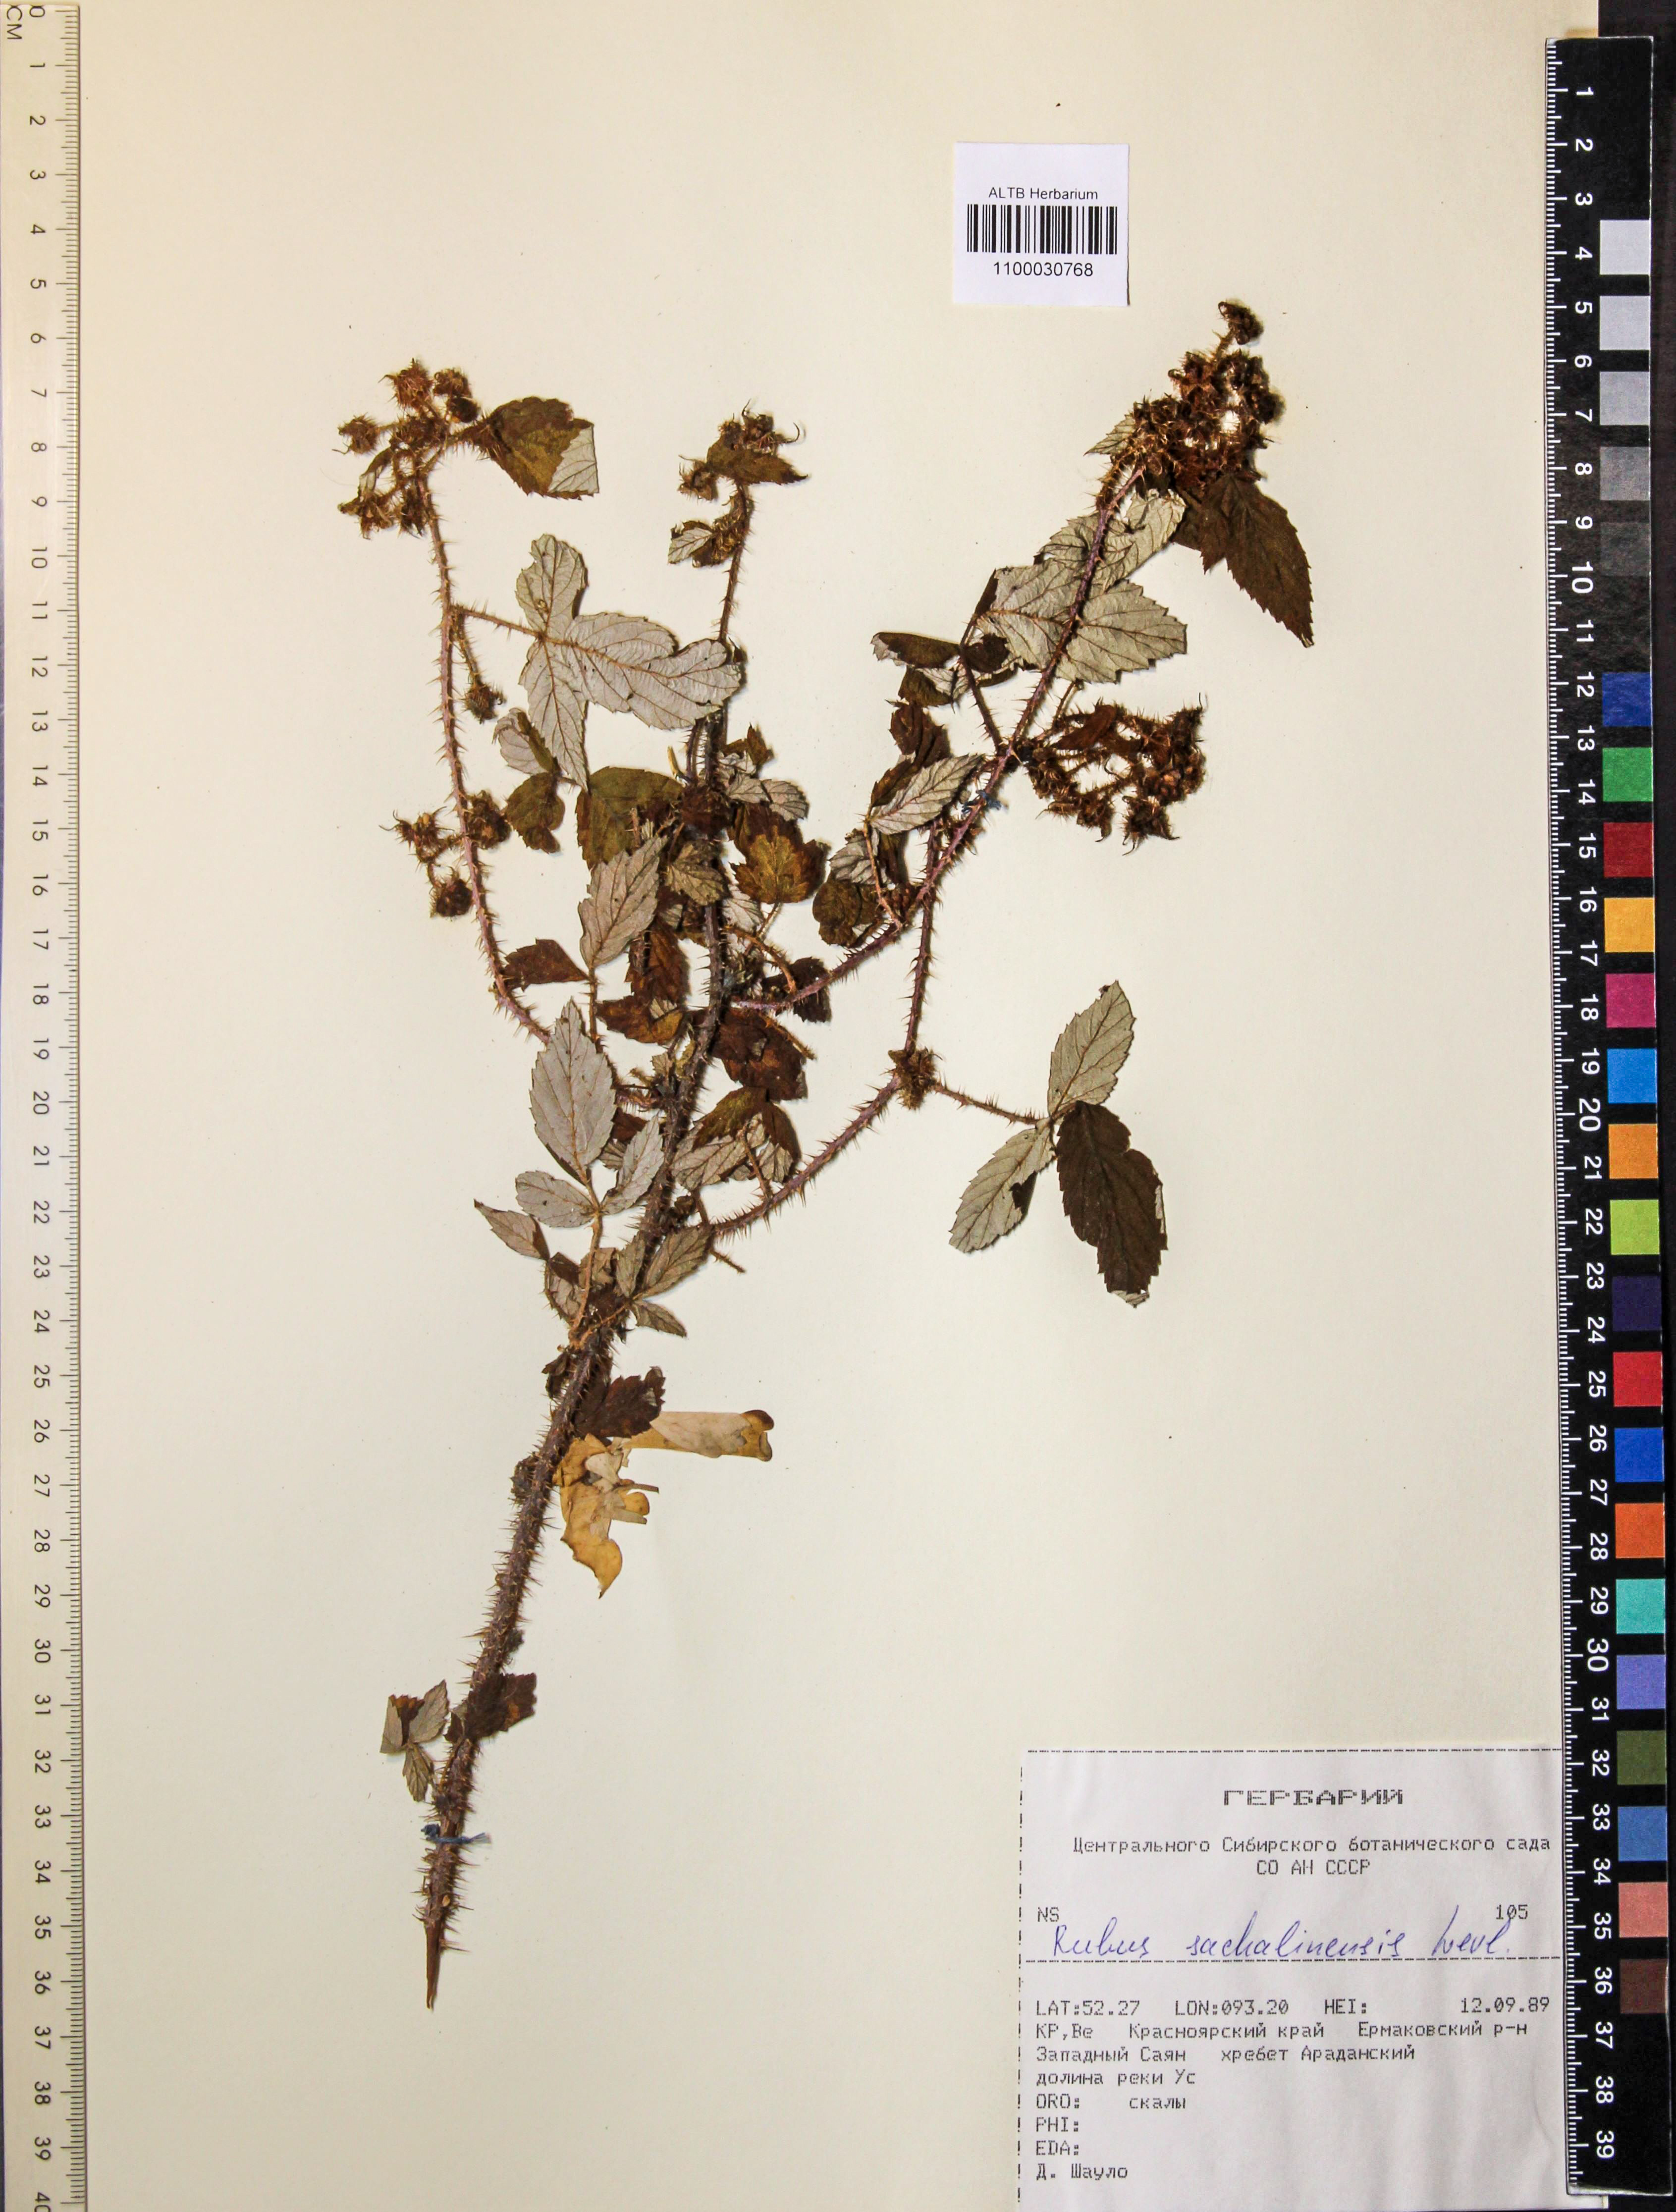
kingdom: Plantae
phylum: Tracheophyta
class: Magnoliopsida
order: Rosales
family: Rosaceae
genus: Rubus
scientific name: Rubus sachalinensis
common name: Red raspberry
